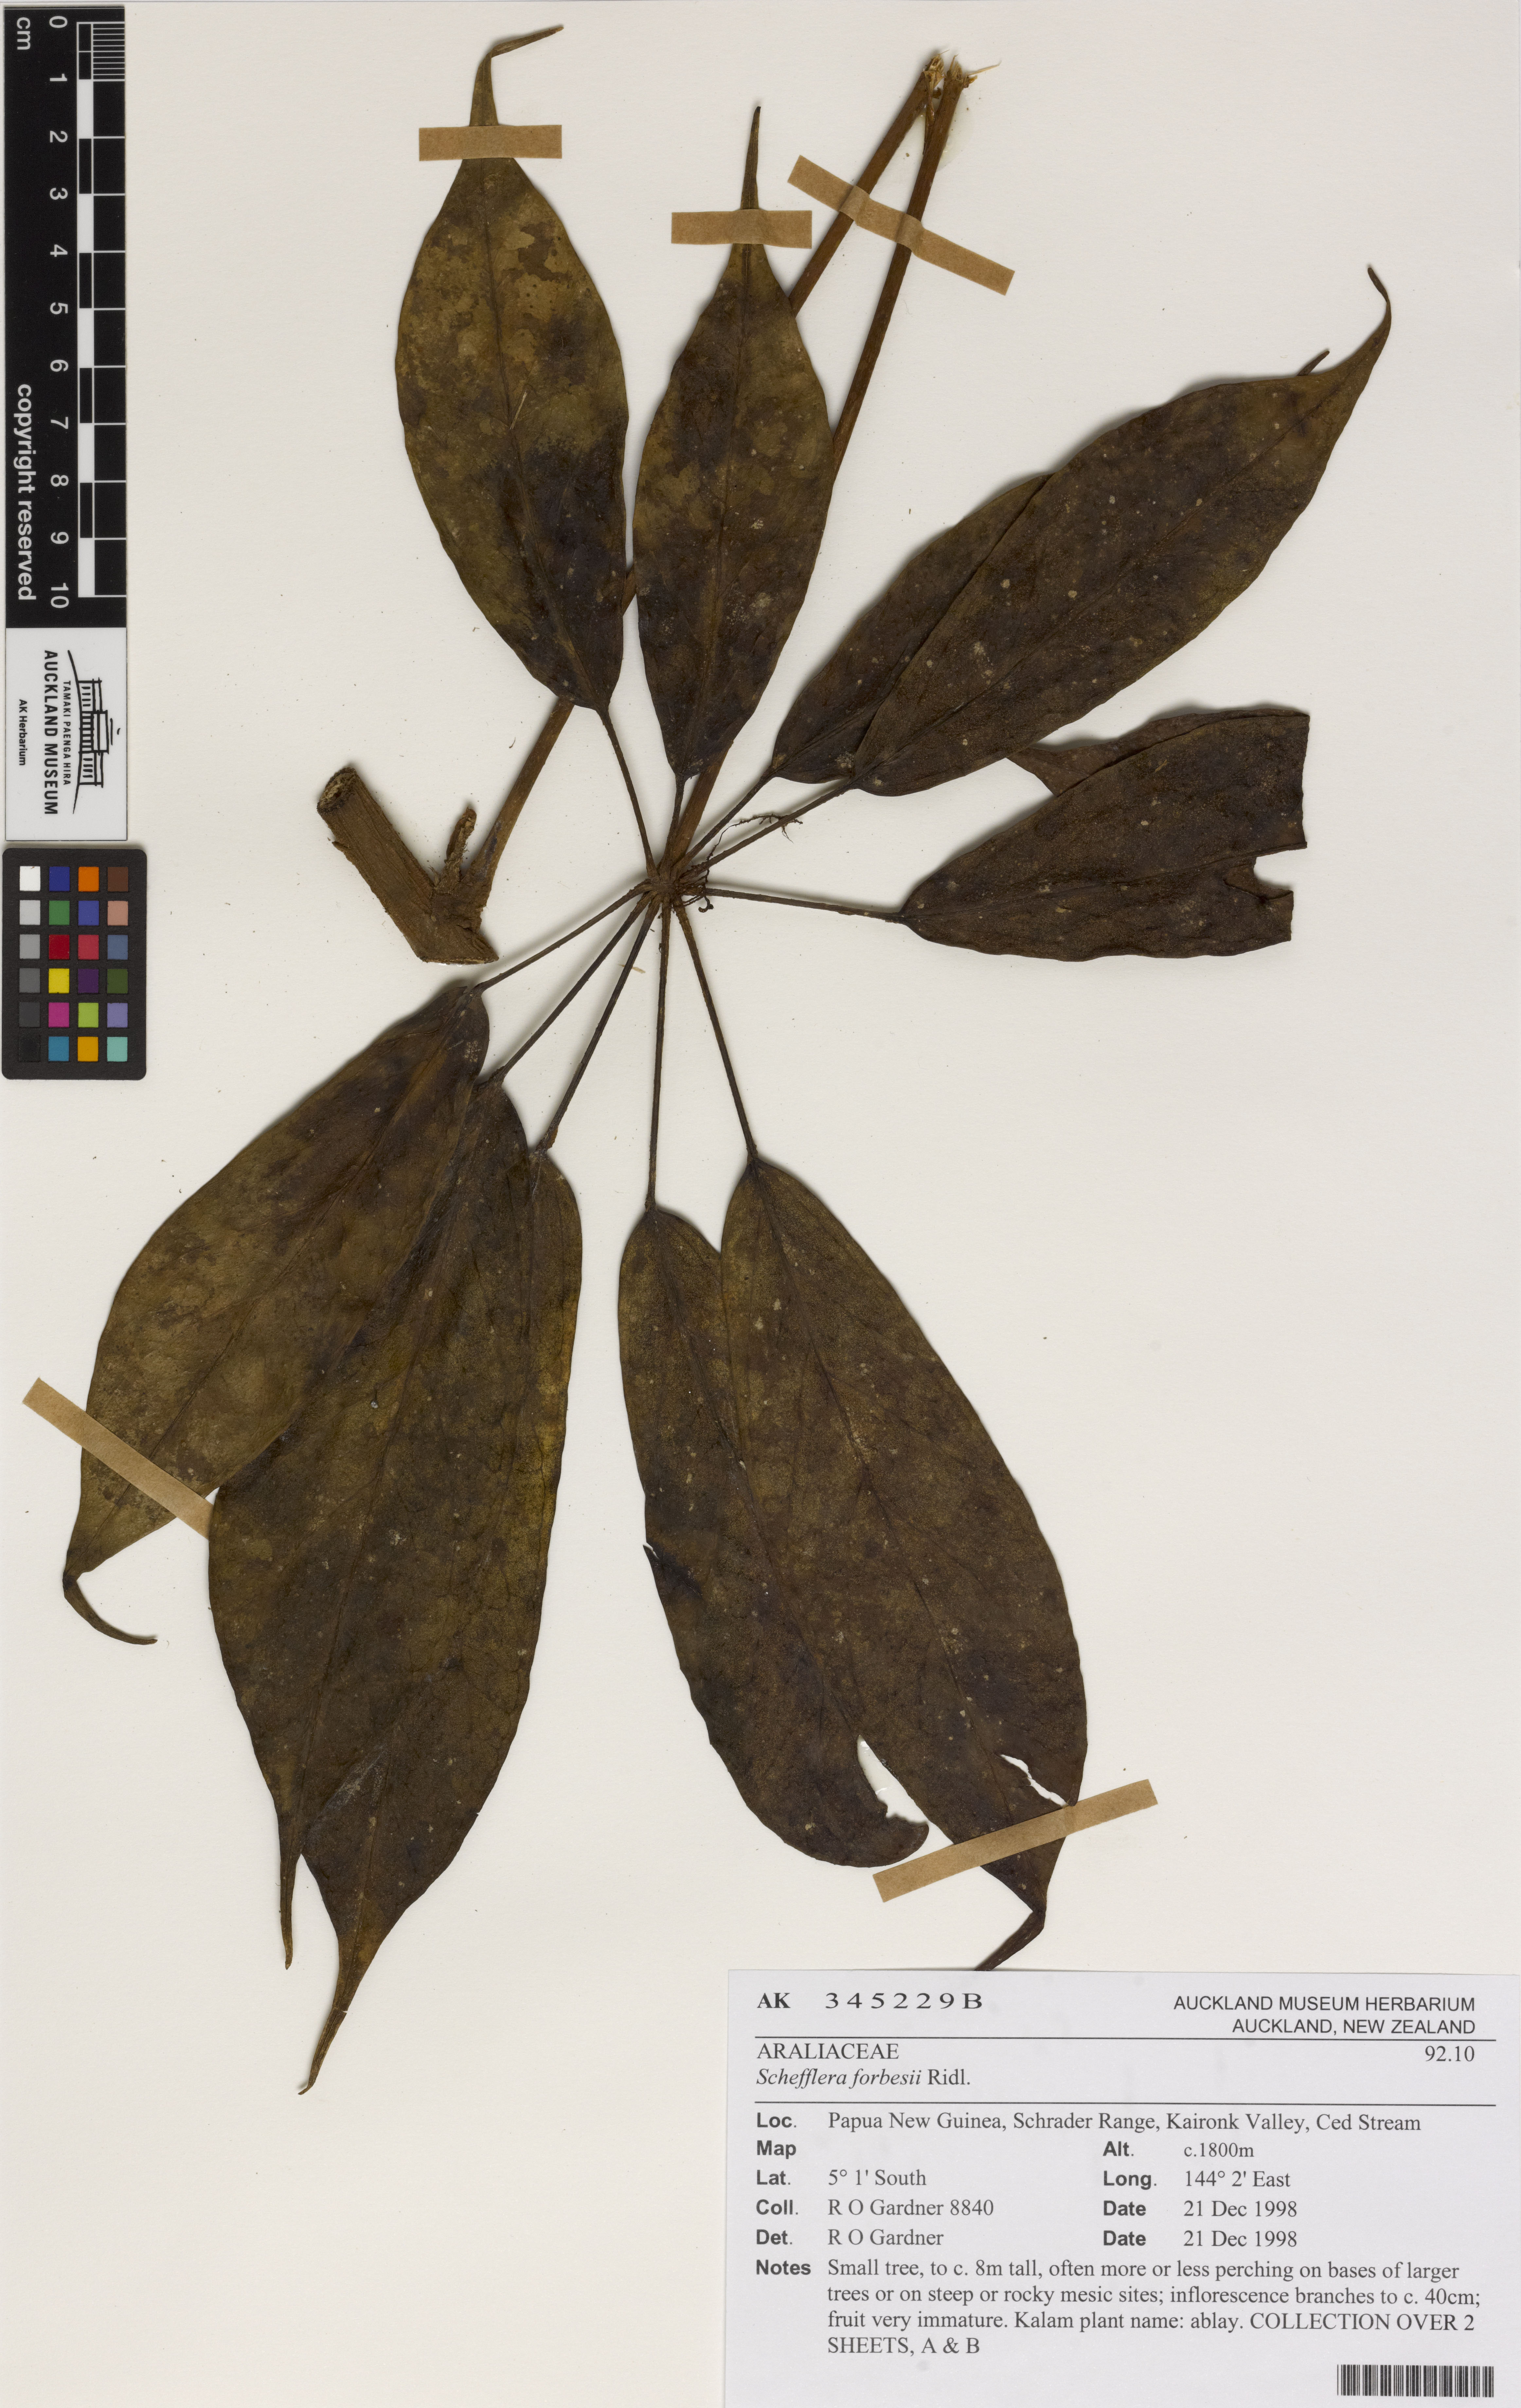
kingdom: Plantae
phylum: Tracheophyta
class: Magnoliopsida
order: Apiales
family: Araliaceae
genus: Heptapleurum
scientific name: Heptapleurum forbesii
